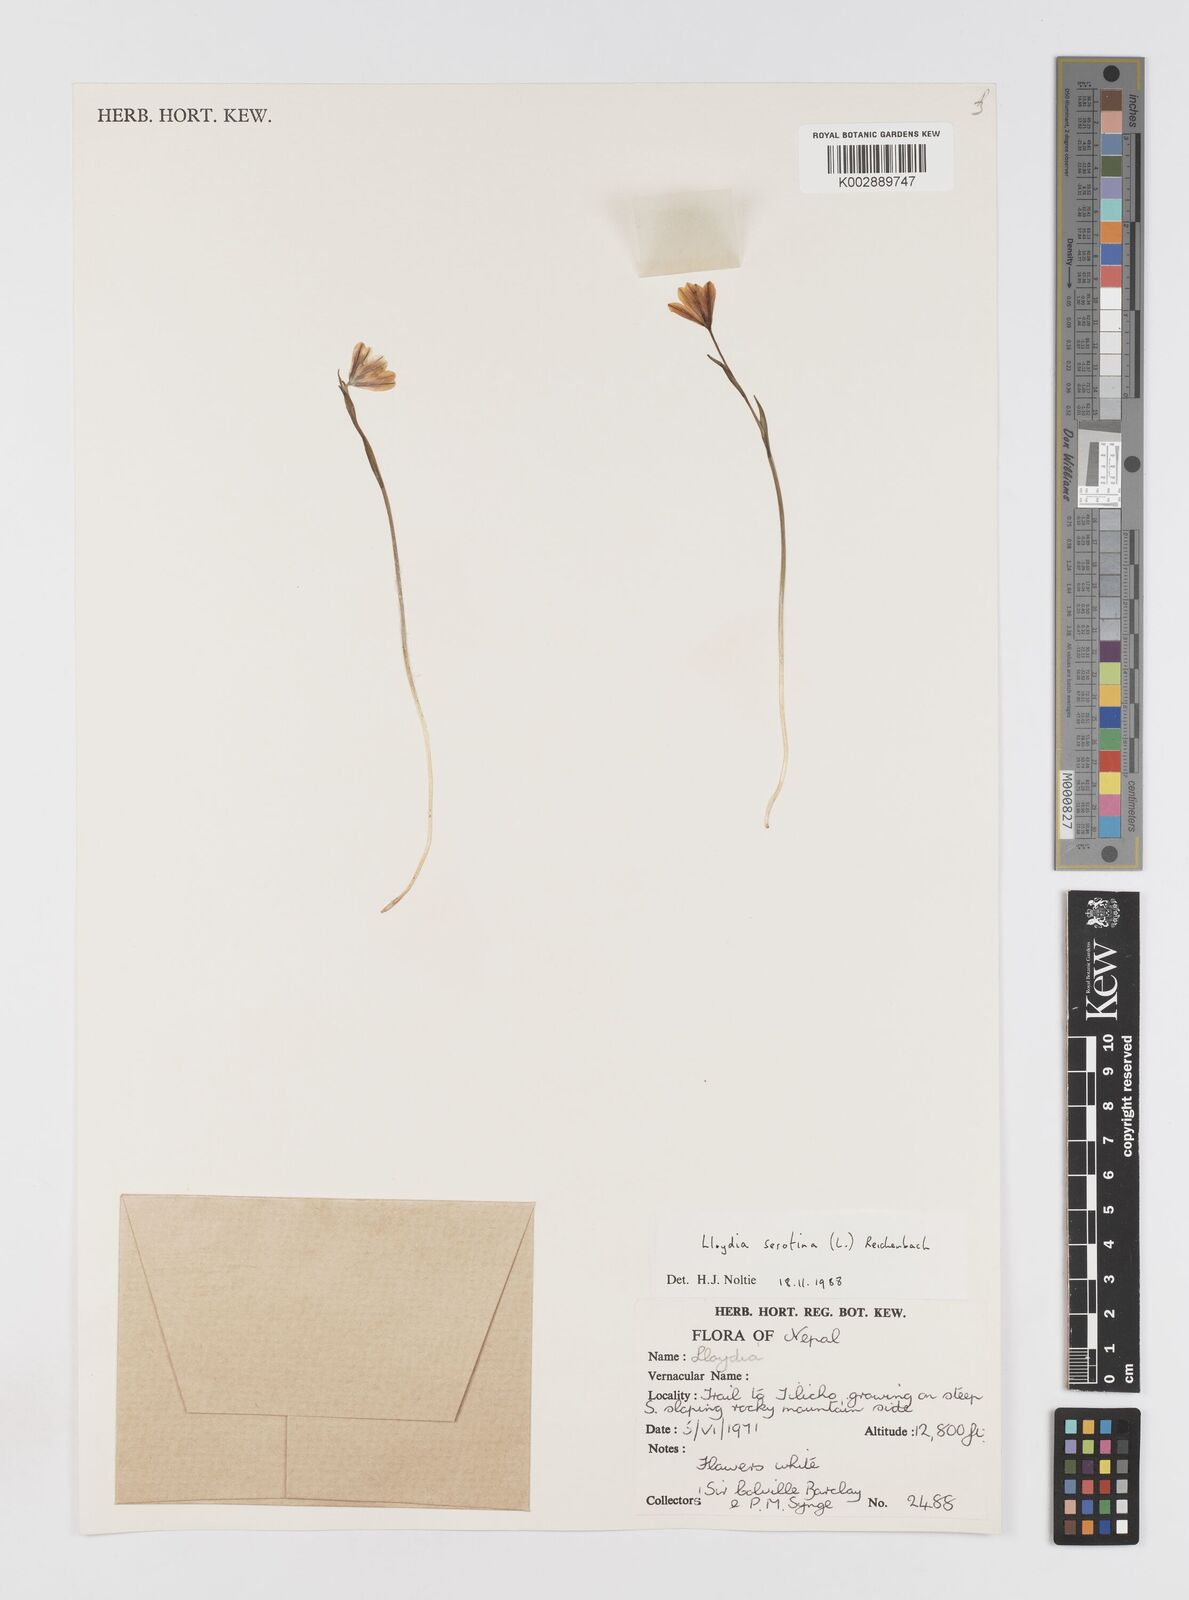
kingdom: Plantae
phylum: Tracheophyta
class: Liliopsida
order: Liliales
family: Liliaceae
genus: Gagea
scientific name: Gagea serotina
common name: Snowdon lily
